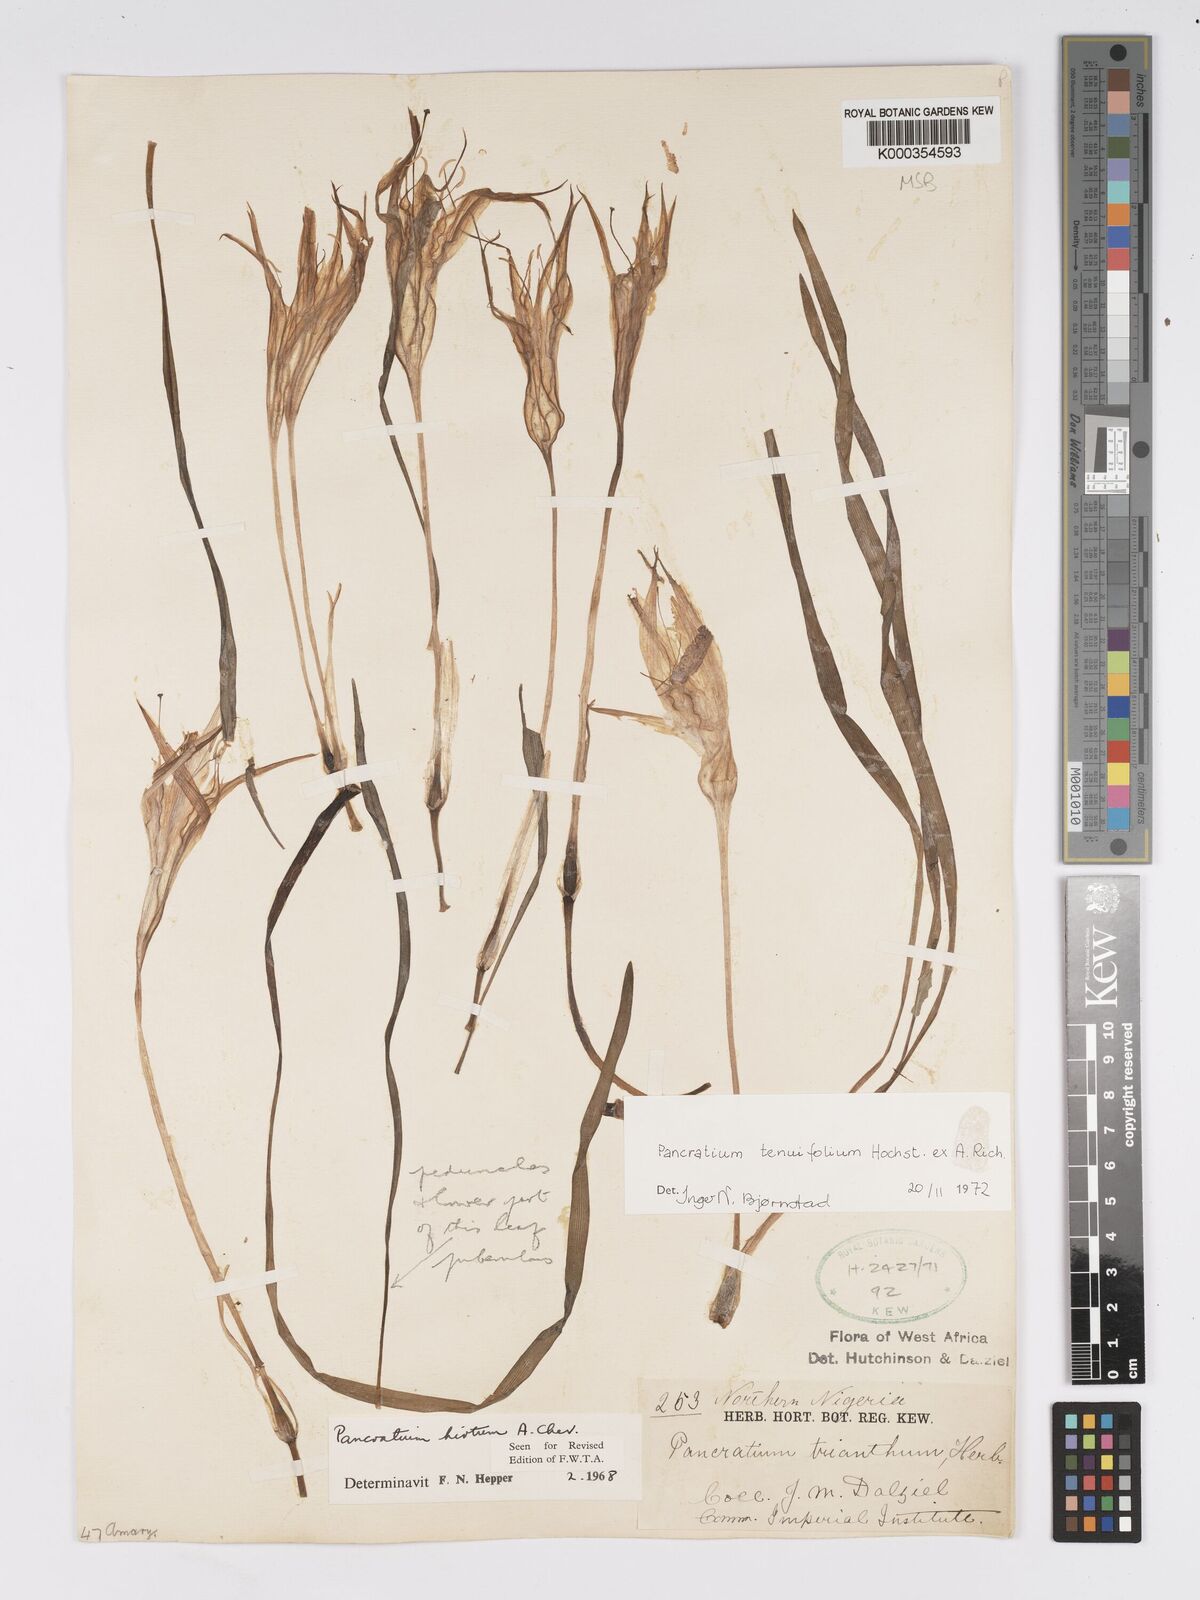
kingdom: Plantae
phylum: Tracheophyta
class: Liliopsida
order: Asparagales
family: Amaryllidaceae
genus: Pancratium
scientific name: Pancratium tenuifolium
